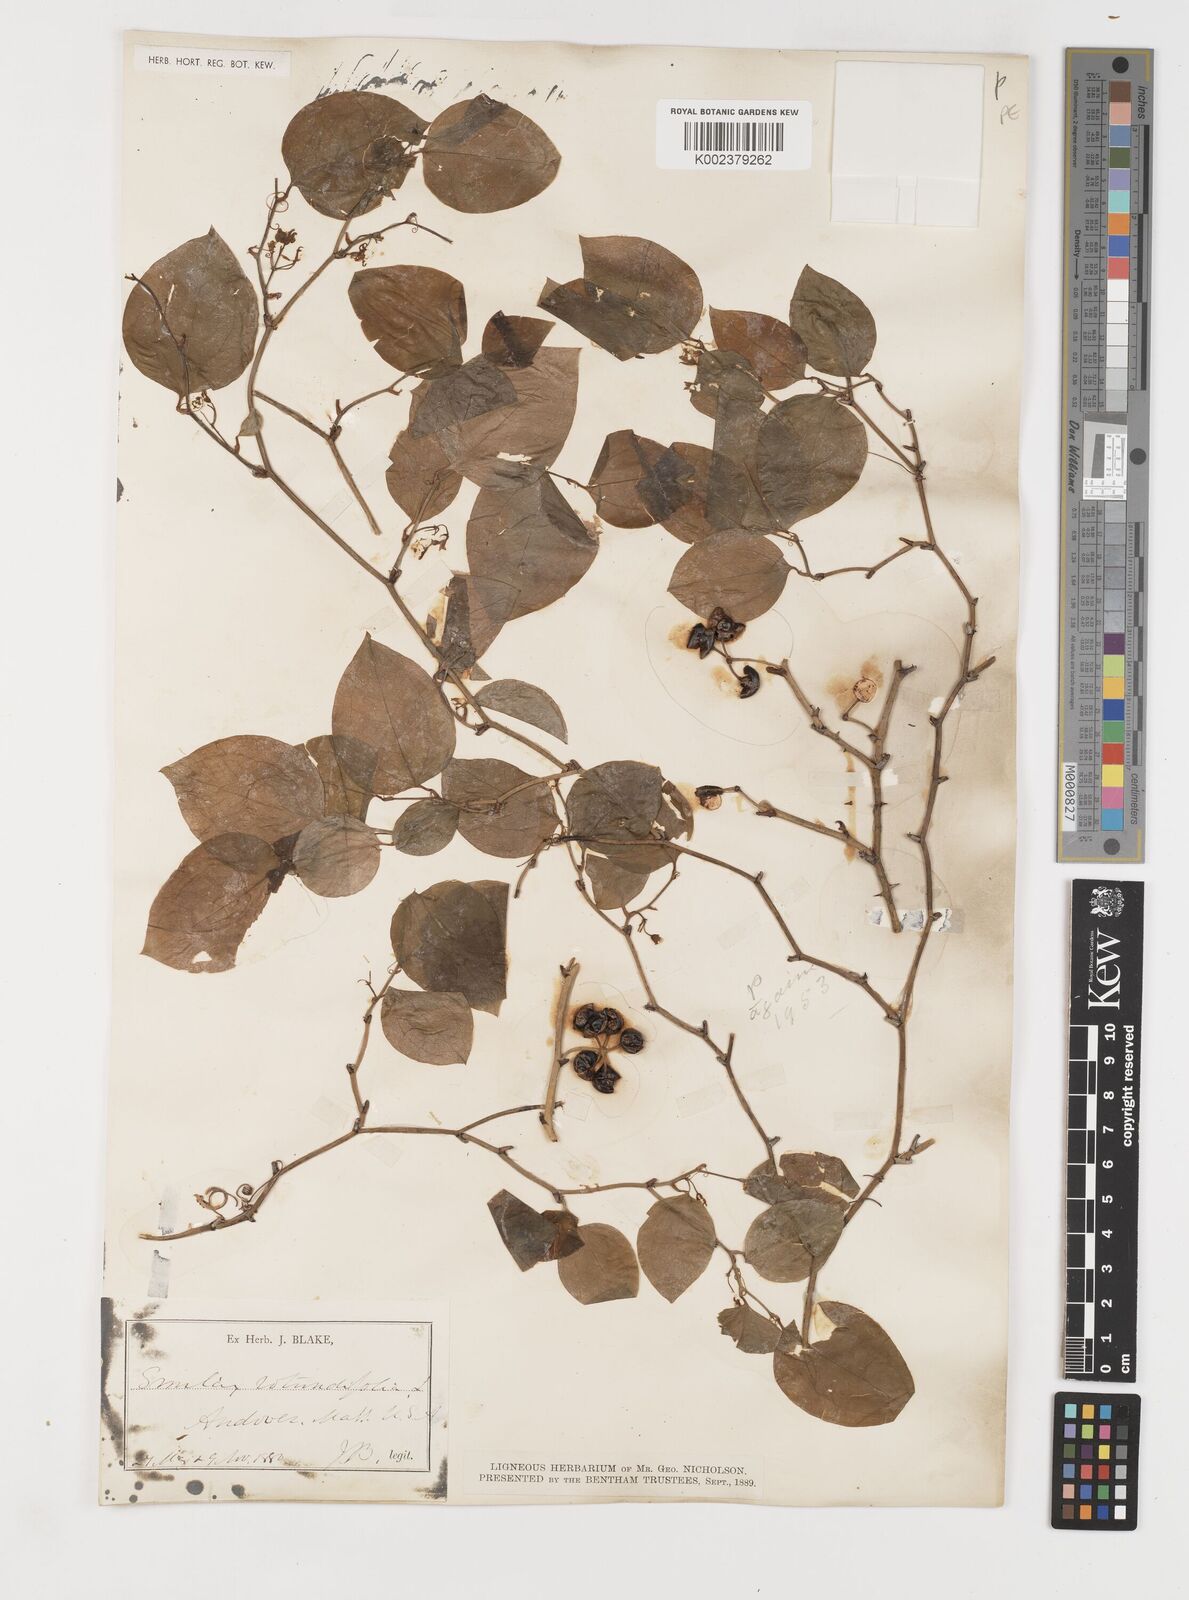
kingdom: Plantae
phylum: Tracheophyta
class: Liliopsida
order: Liliales
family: Smilacaceae
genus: Smilax
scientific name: Smilax rotundifolia
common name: Bullbriar
